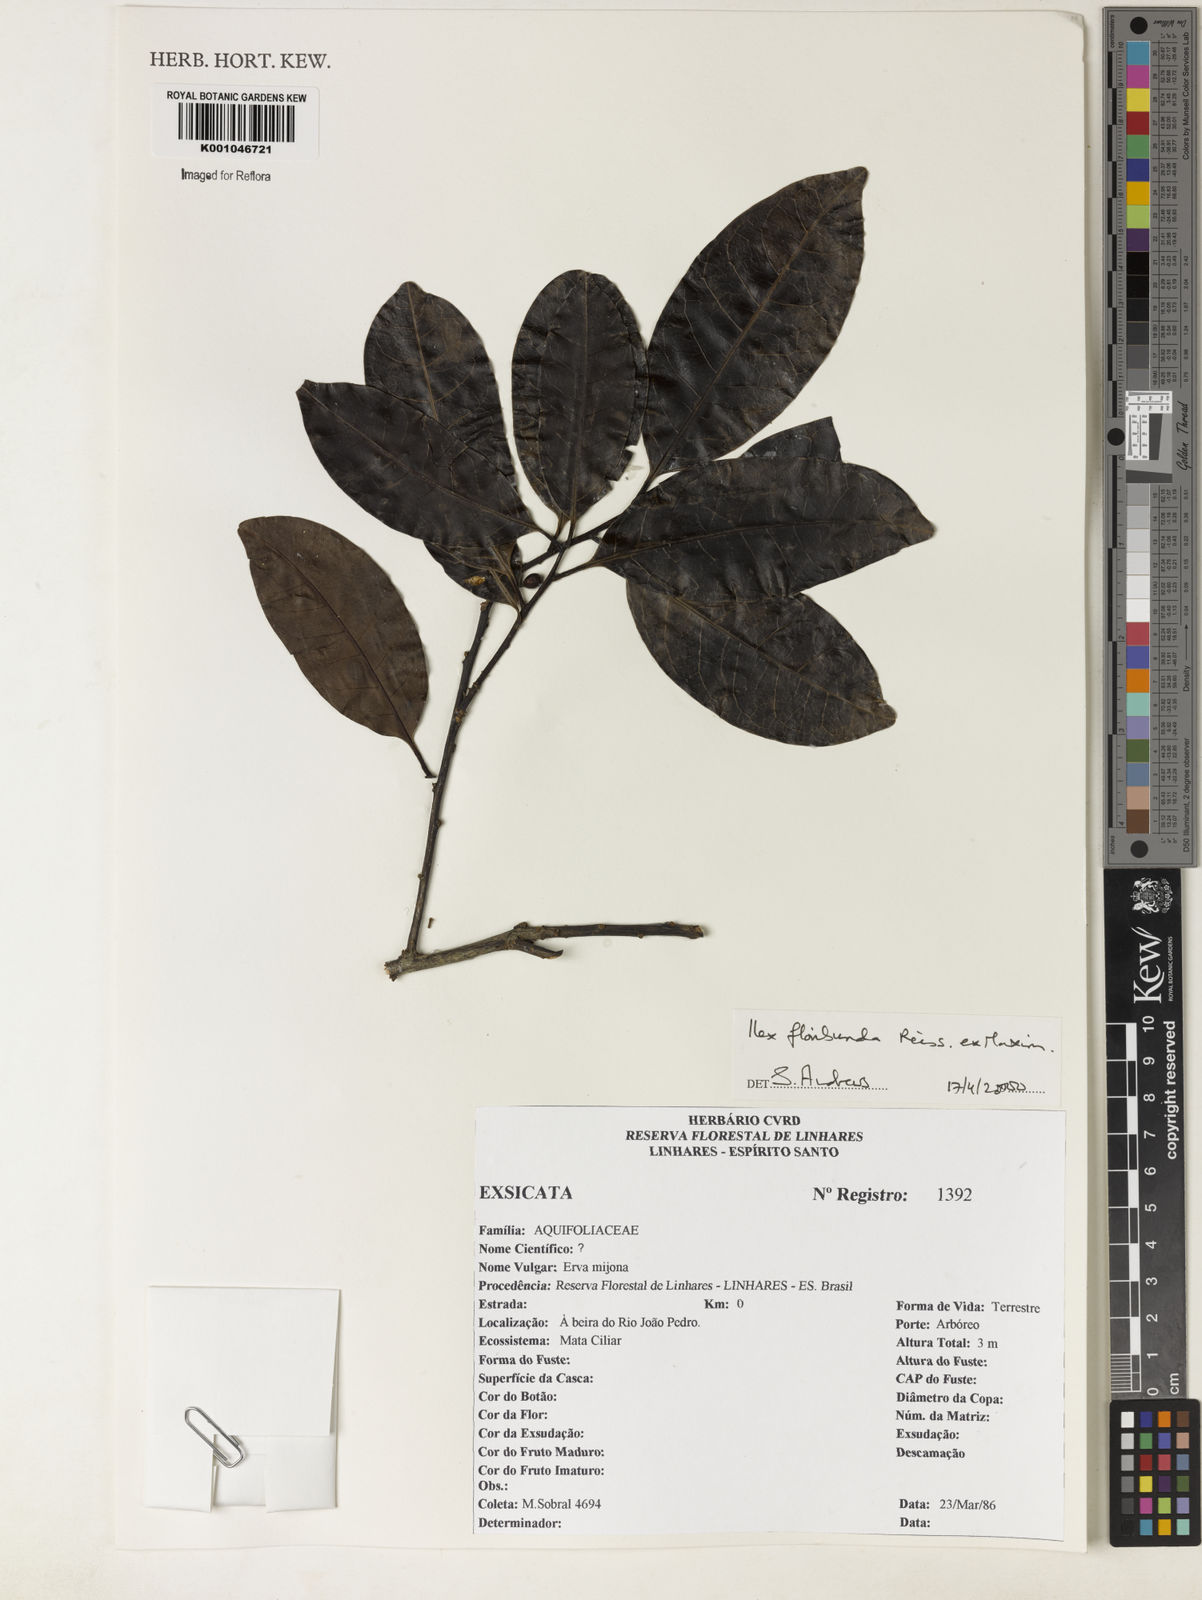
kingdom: Plantae
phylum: Tracheophyta
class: Magnoliopsida
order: Aquifoliales
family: Aquifoliaceae
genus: Ilex
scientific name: Ilex floribunda
